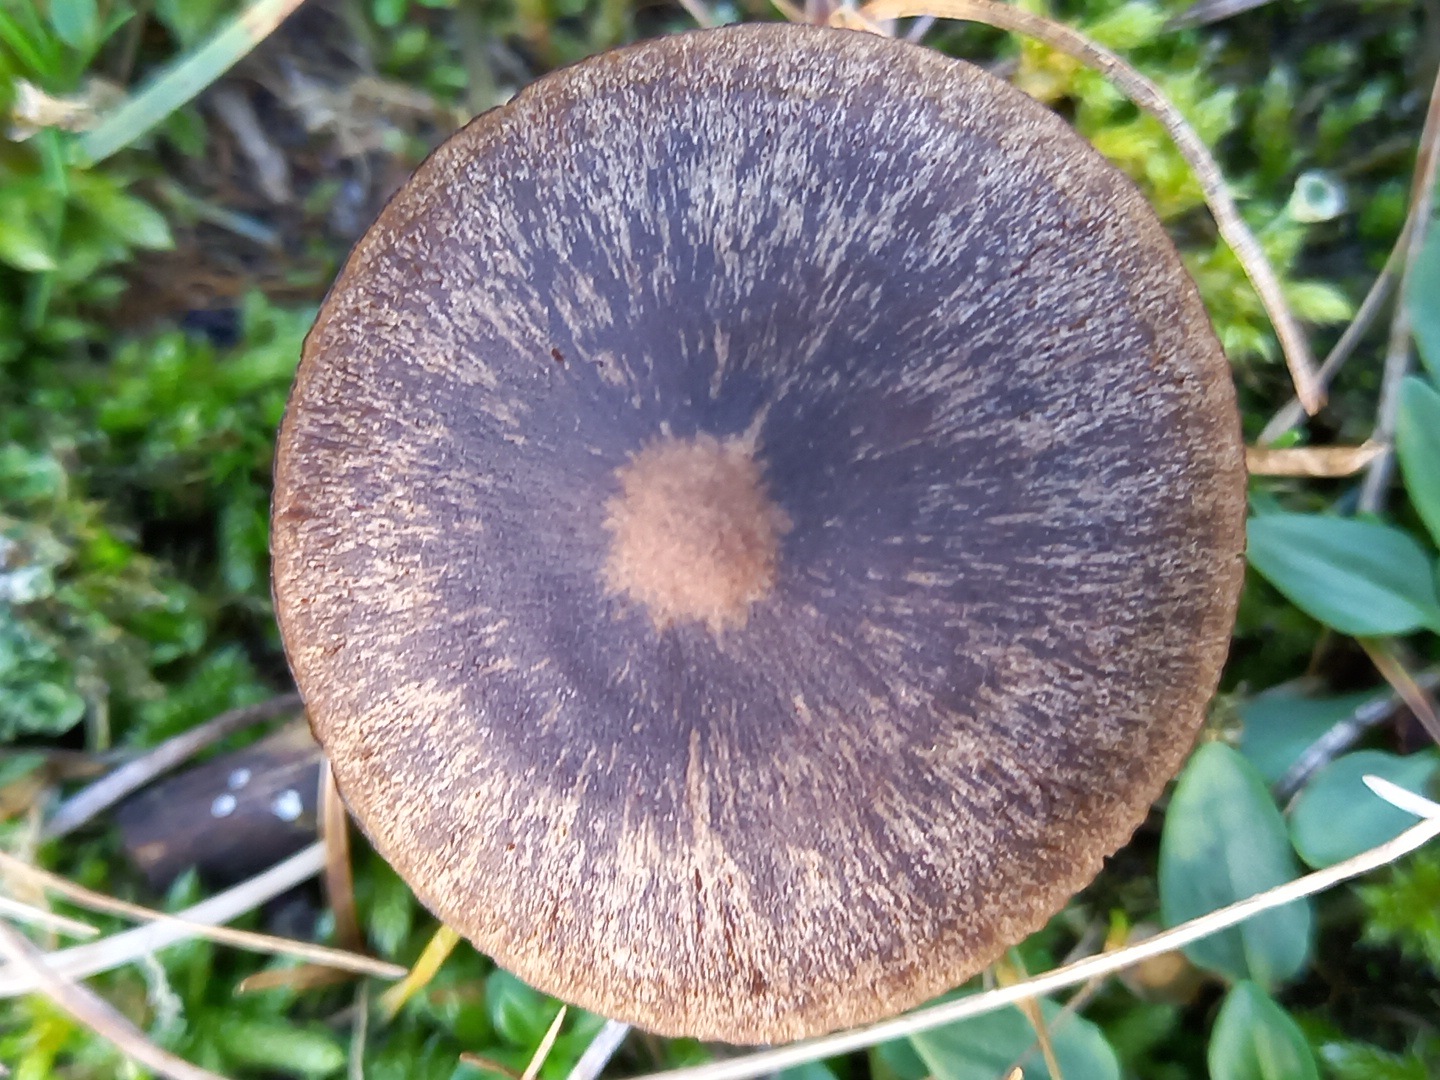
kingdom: Fungi
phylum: Basidiomycota
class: Agaricomycetes
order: Agaricales
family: Entolomataceae
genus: Entoloma
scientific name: Entoloma
